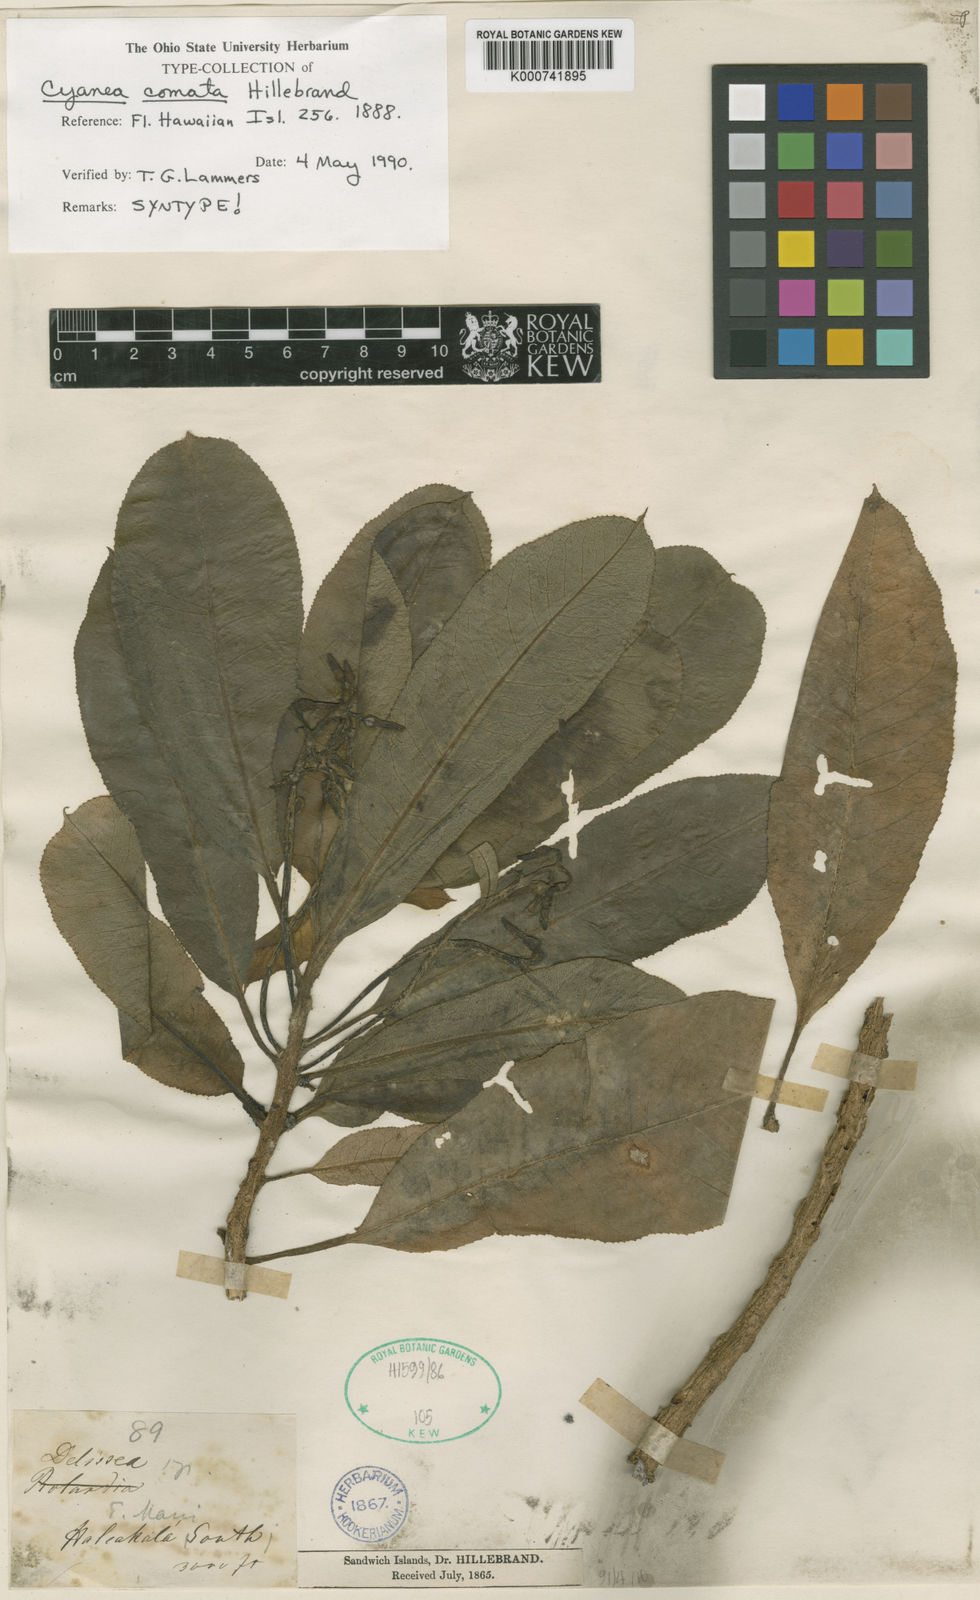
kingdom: Plantae
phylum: Tracheophyta
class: Magnoliopsida
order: Asterales
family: Campanulaceae
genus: Cyanea
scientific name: Cyanea comata
